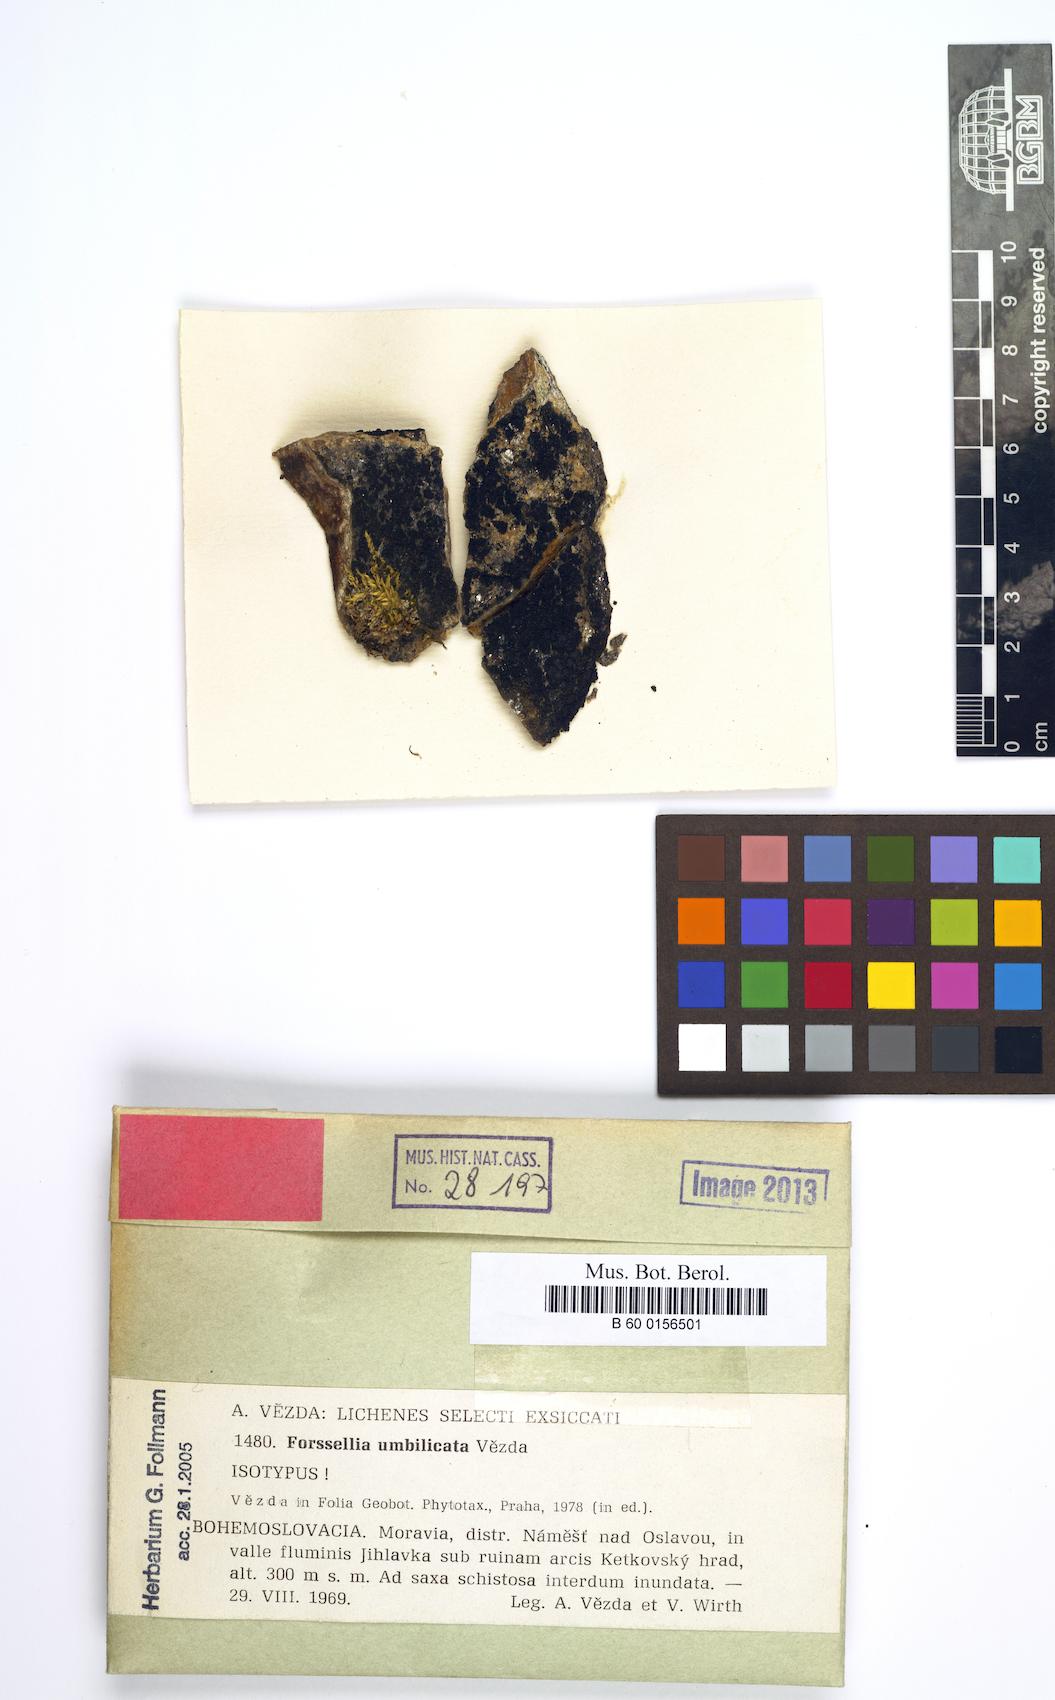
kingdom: Fungi
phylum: Ascomycota
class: Lichinomycetes
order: Lichinales
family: Lichinaceae
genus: Pterygiopsis
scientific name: Pterygiopsis umbilicata
